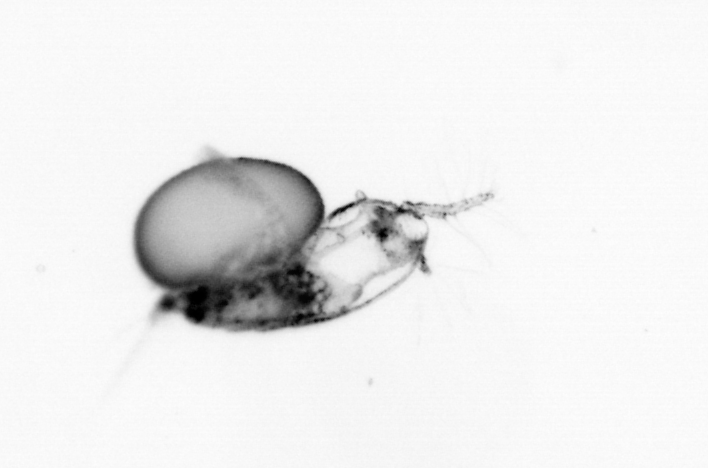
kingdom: Animalia
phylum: Arthropoda
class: Copepoda
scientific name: Copepoda
